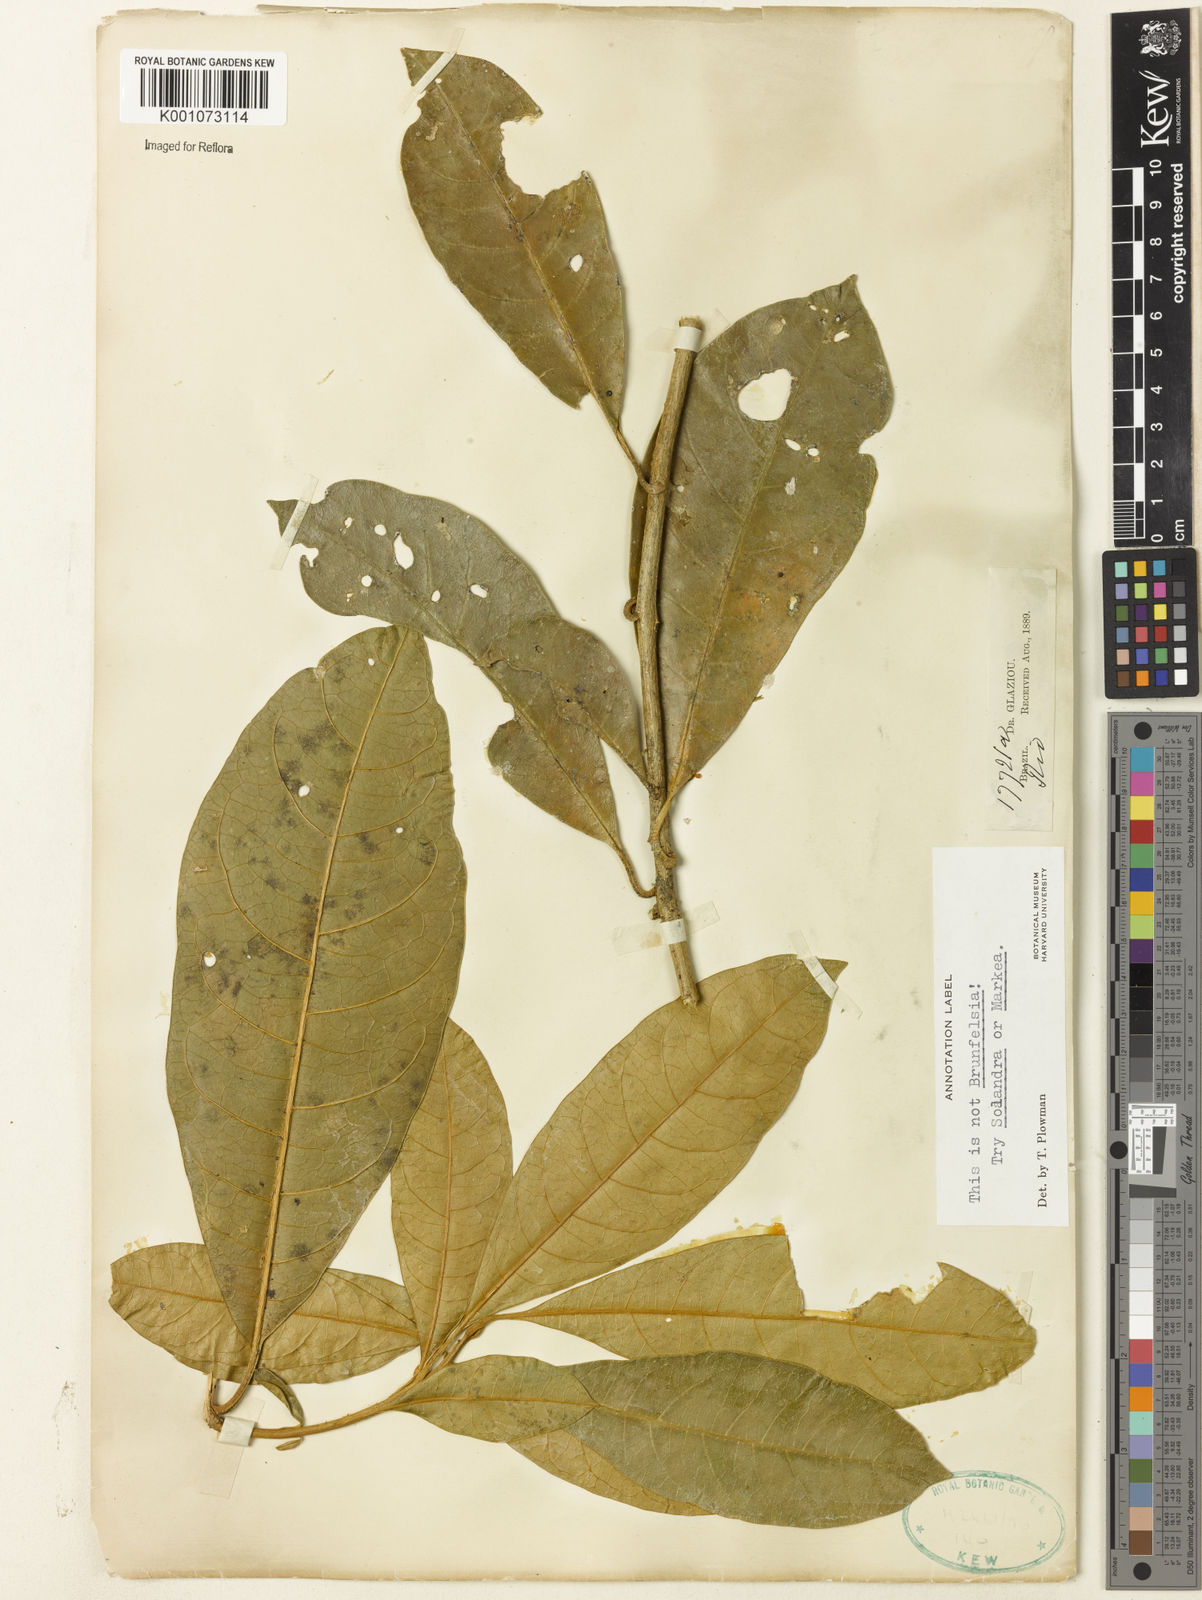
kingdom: Plantae
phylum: Tracheophyta
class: Magnoliopsida
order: Solanales
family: Solanaceae
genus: Solandra
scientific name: Solandra
